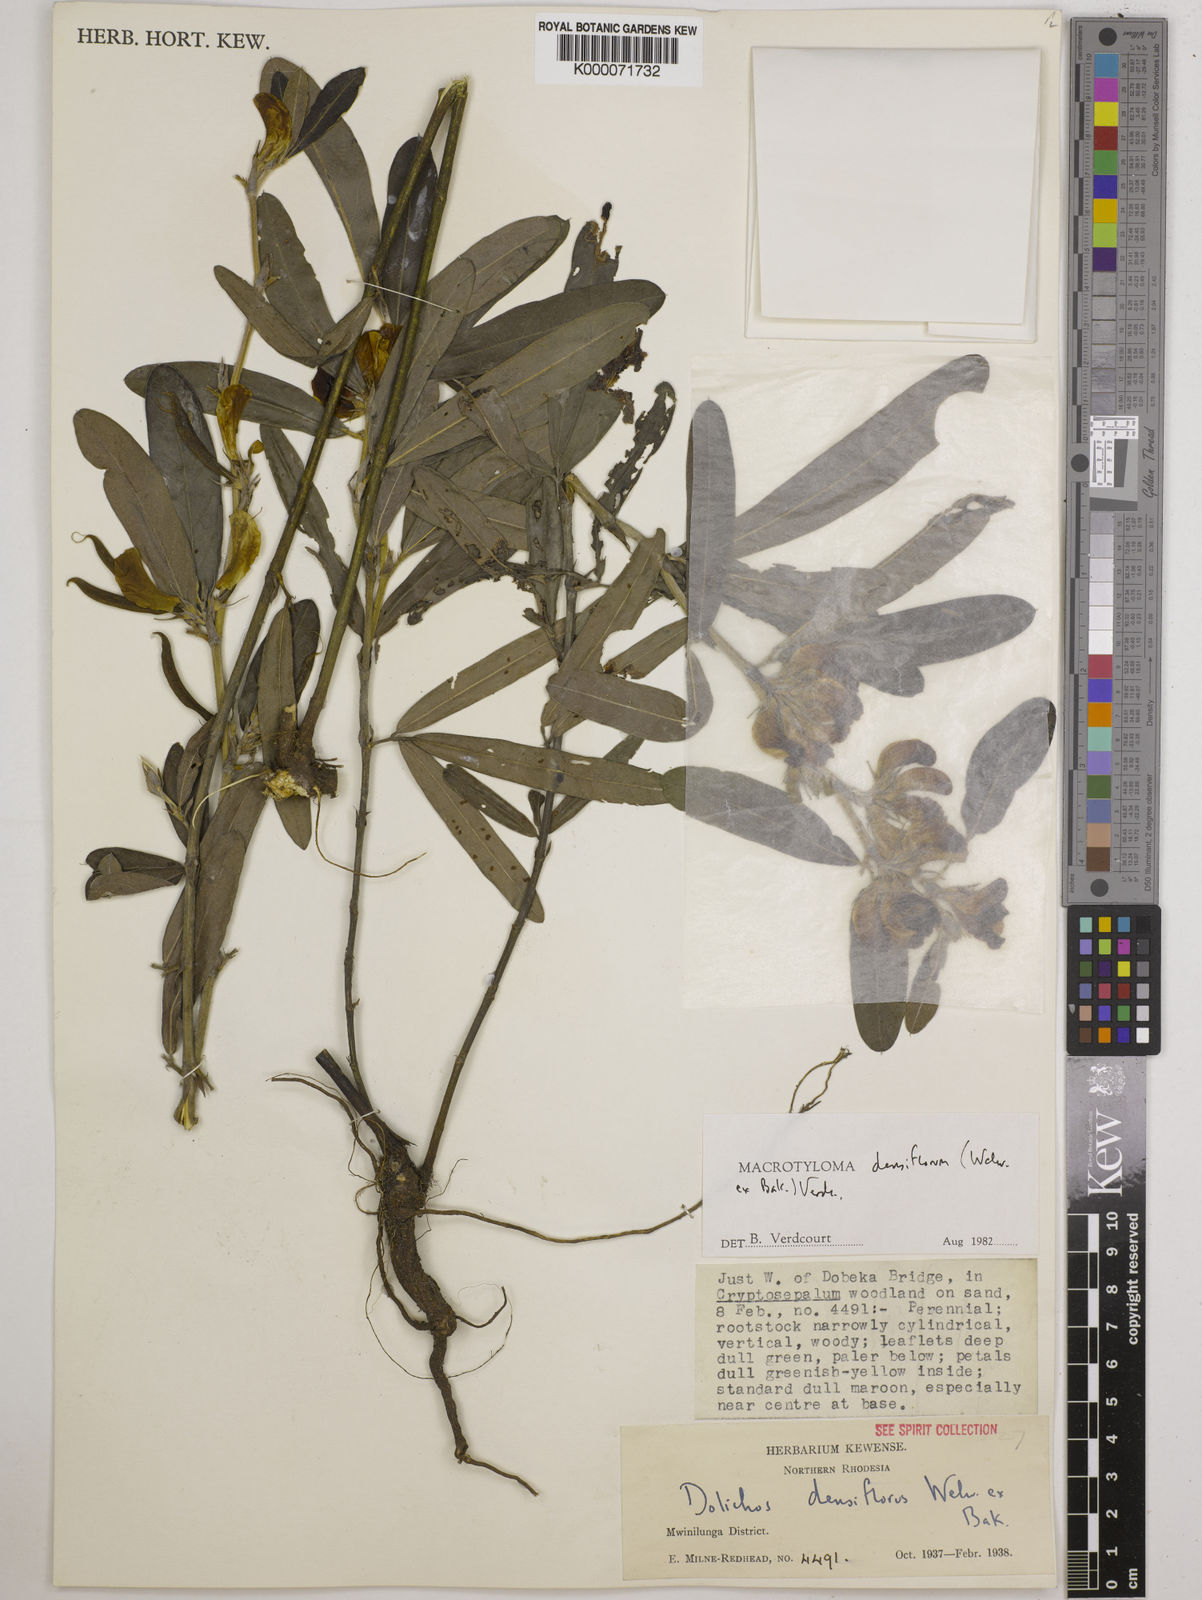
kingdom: Plantae
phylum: Tracheophyta
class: Magnoliopsida
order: Fabales
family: Fabaceae
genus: Macrotyloma
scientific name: Macrotyloma densiflorum
